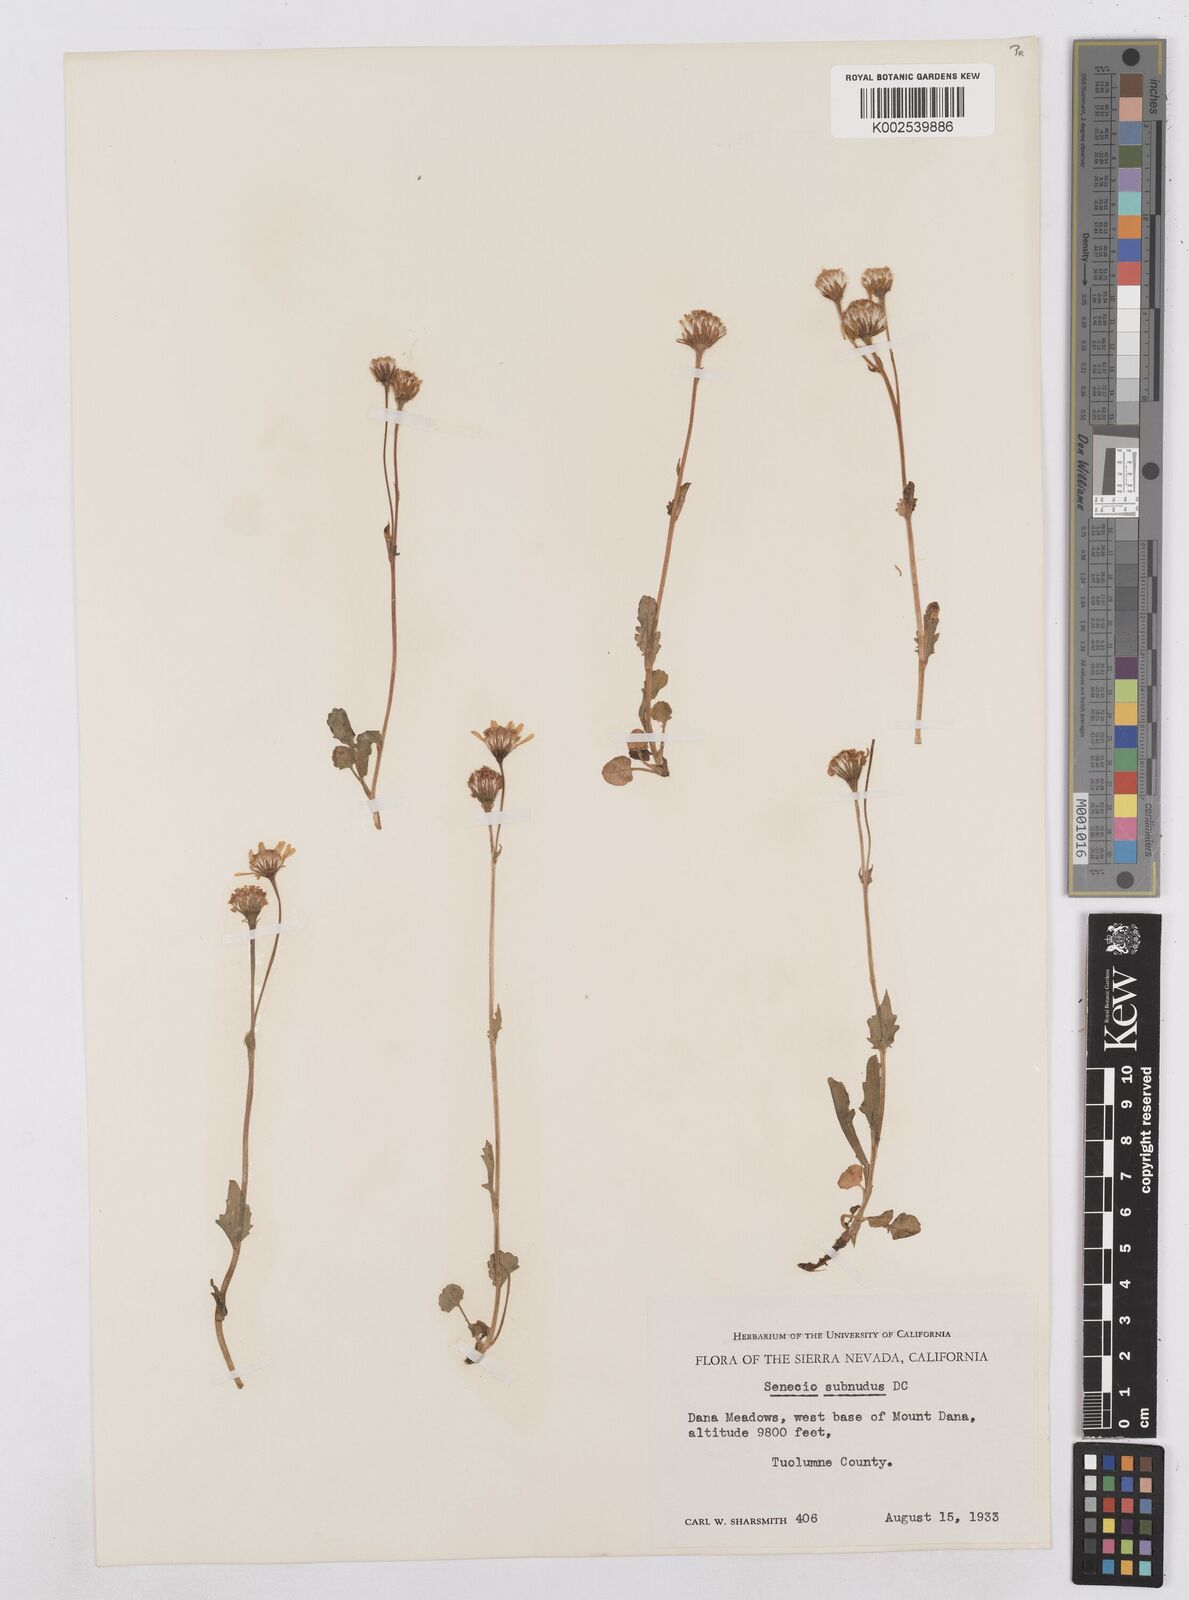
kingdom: Plantae
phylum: Tracheophyta
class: Magnoliopsida
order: Asterales
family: Asteraceae
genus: Packera
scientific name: Packera aurea
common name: Golden groundsel
